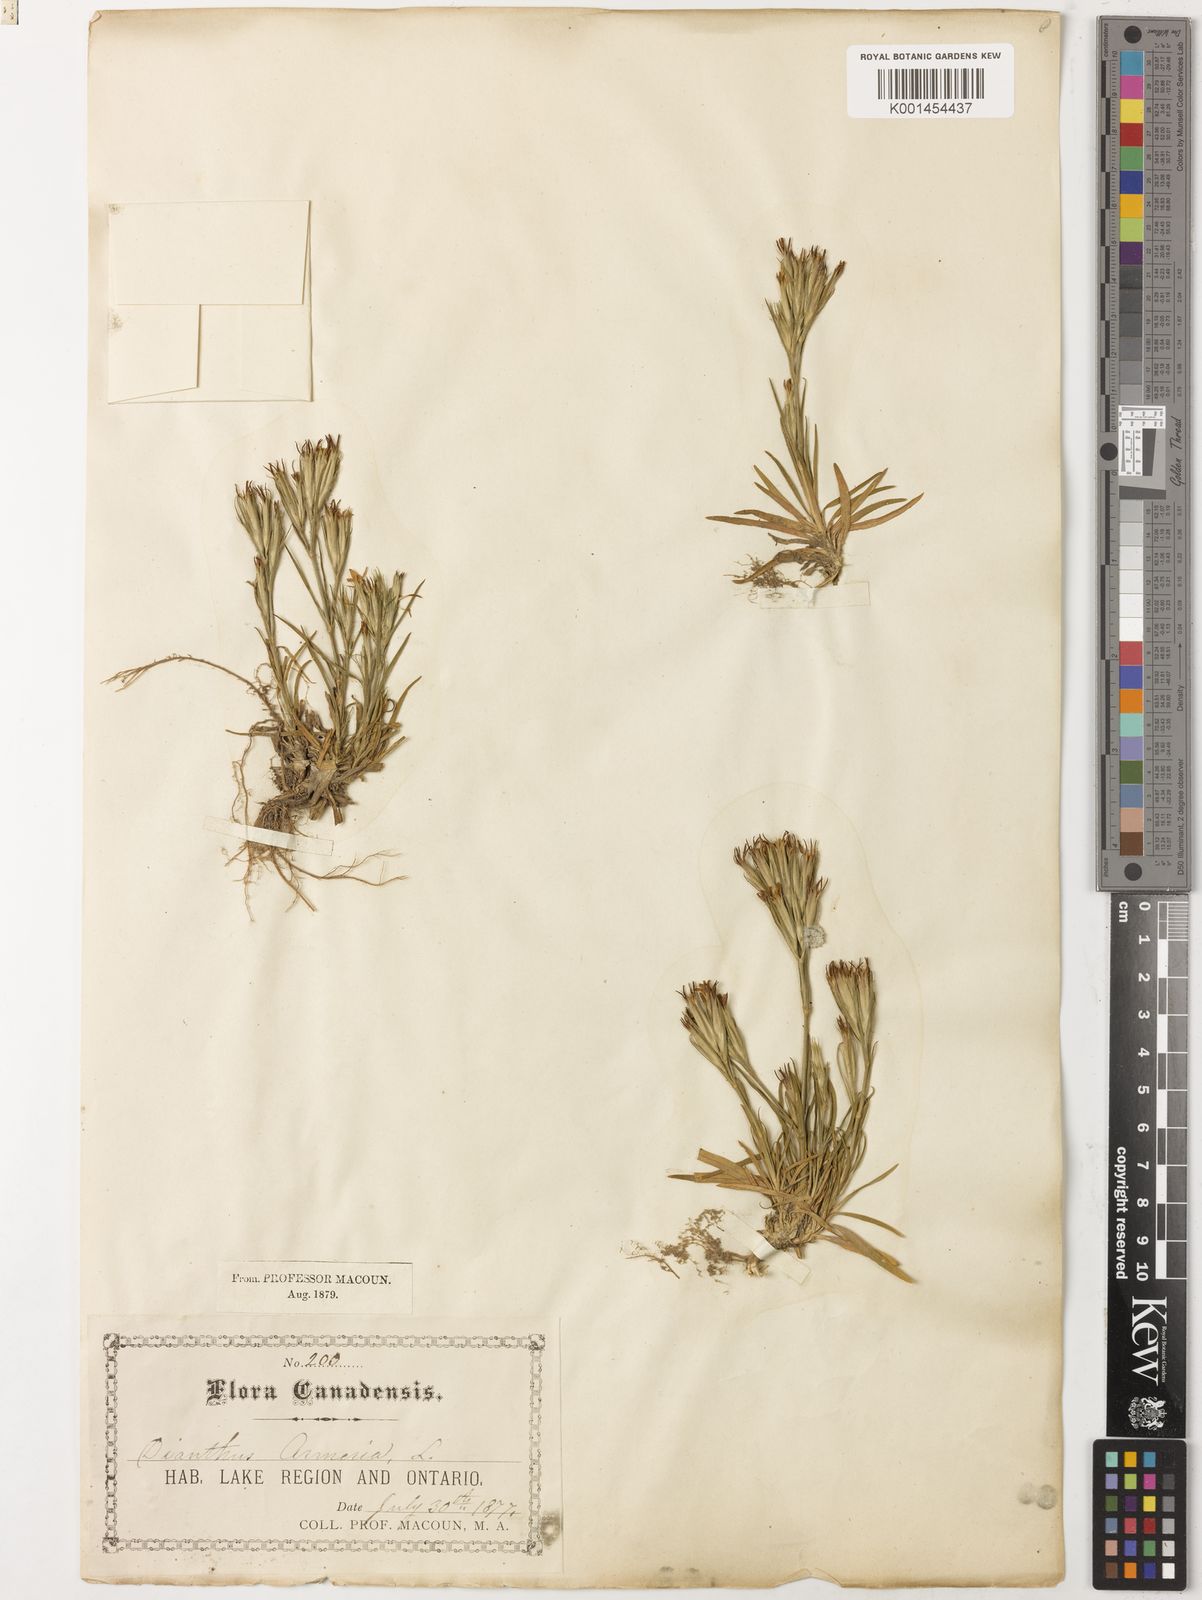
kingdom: Plantae
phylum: Tracheophyta
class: Magnoliopsida
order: Caryophyllales
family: Caryophyllaceae
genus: Dianthus
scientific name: Dianthus armeria
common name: Deptford pink
